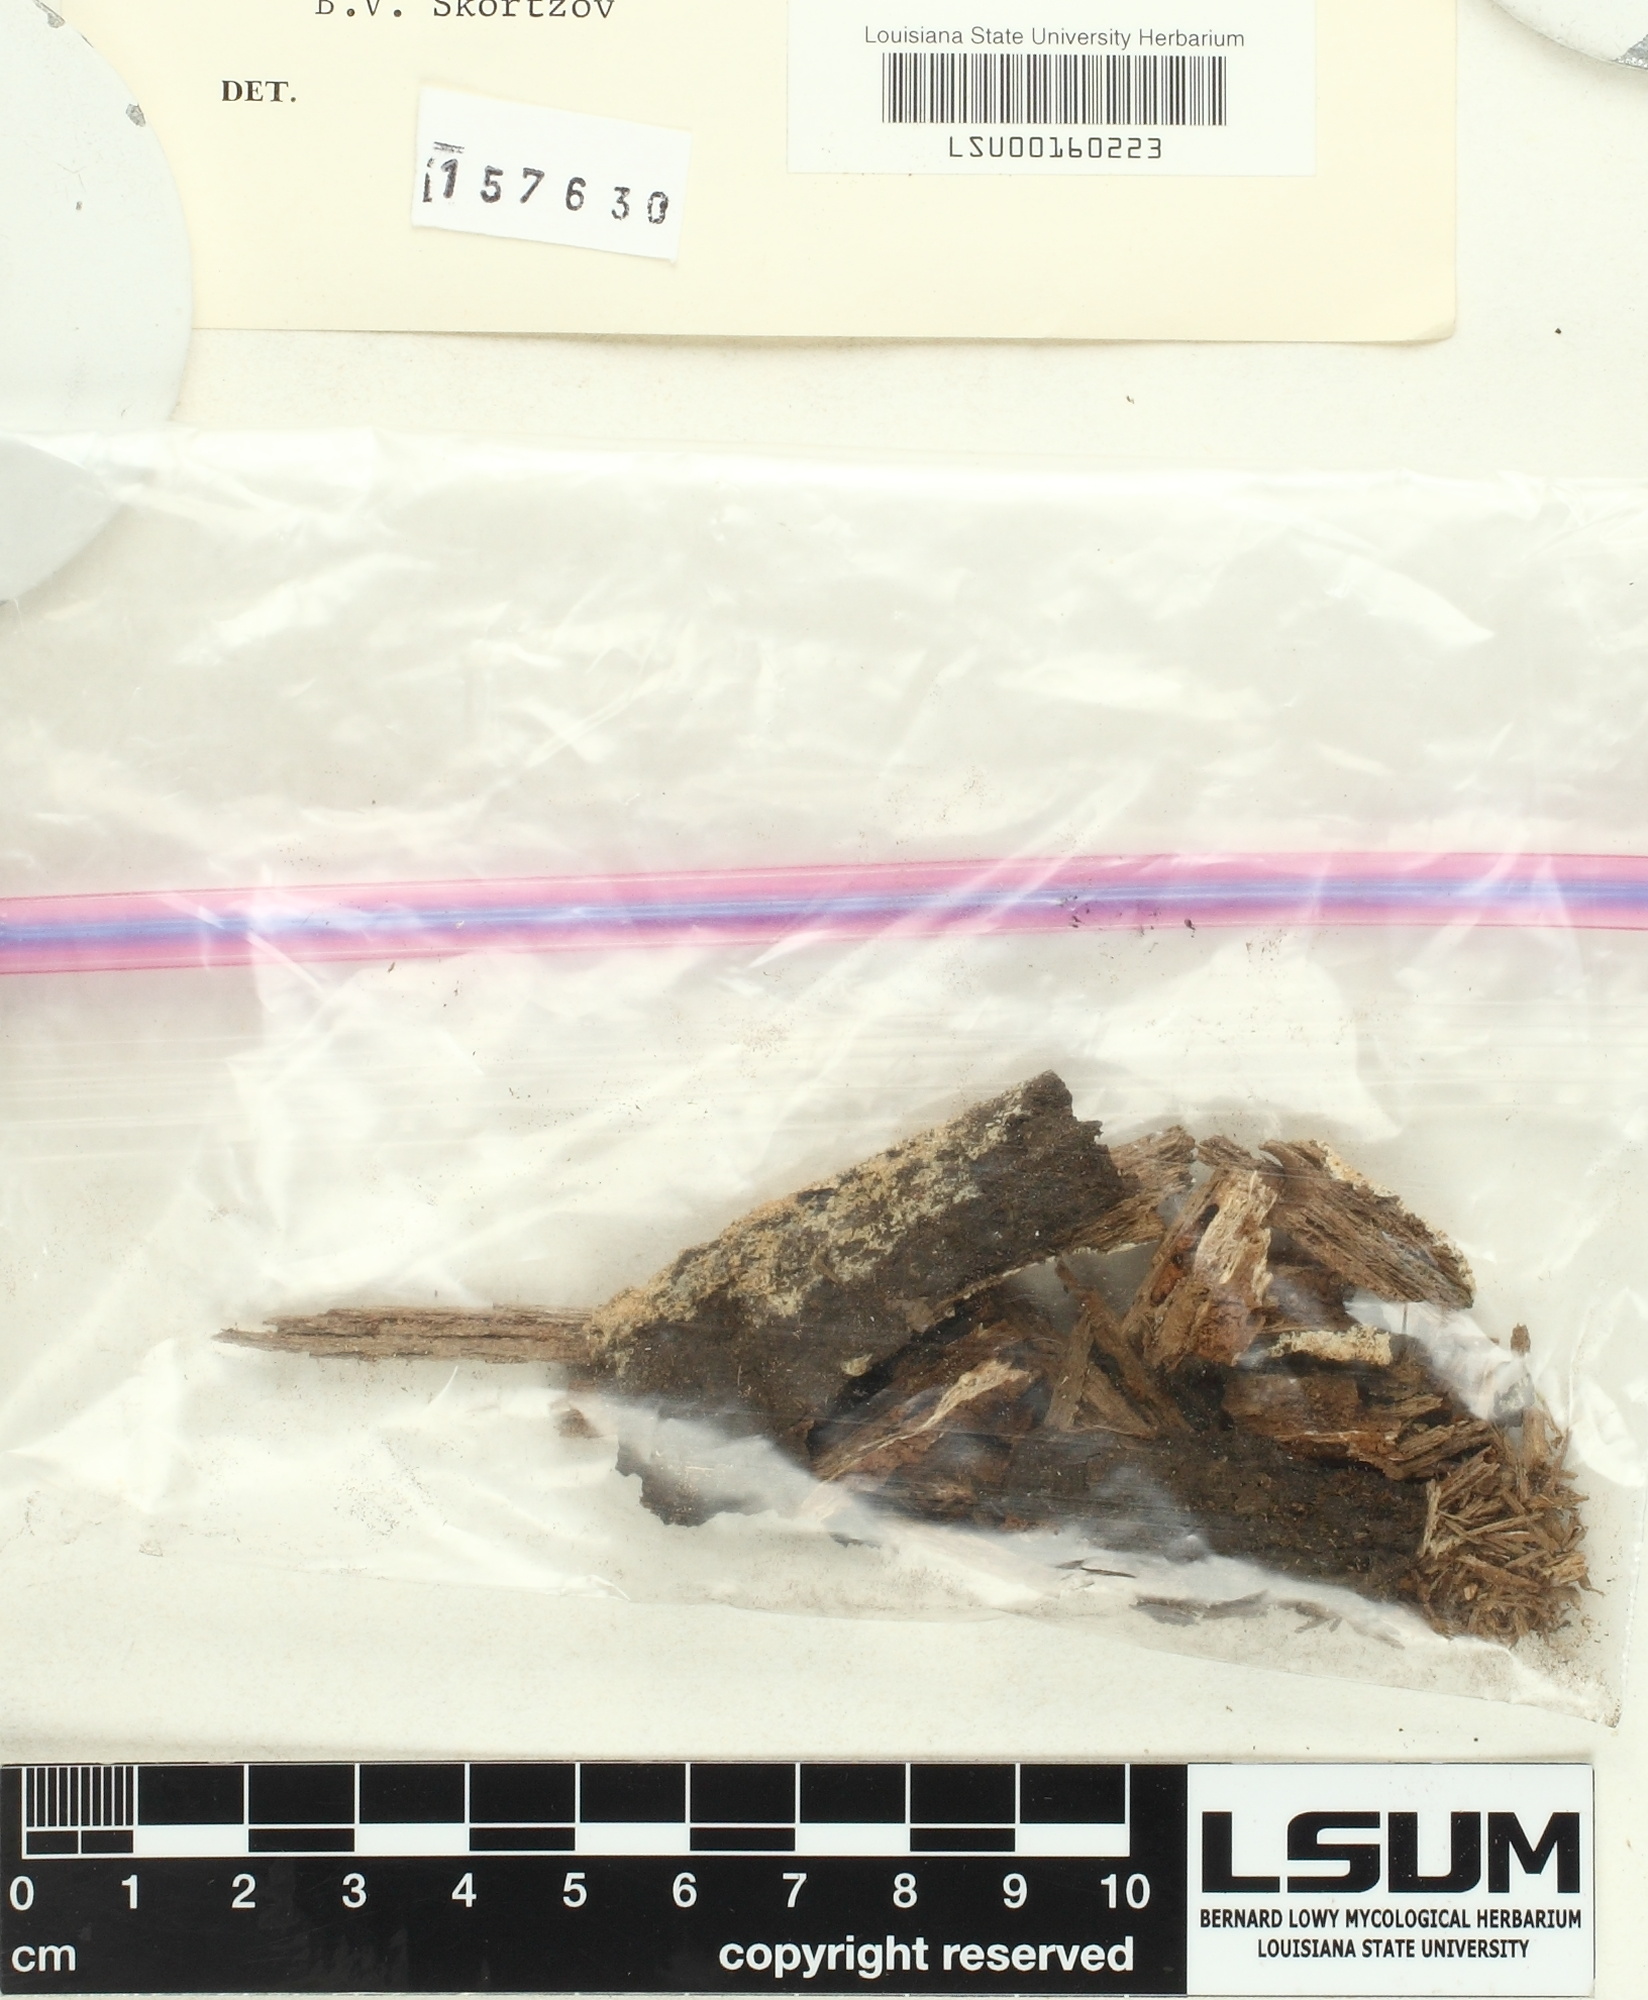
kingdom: Fungi
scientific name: Fungi
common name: Fungi
